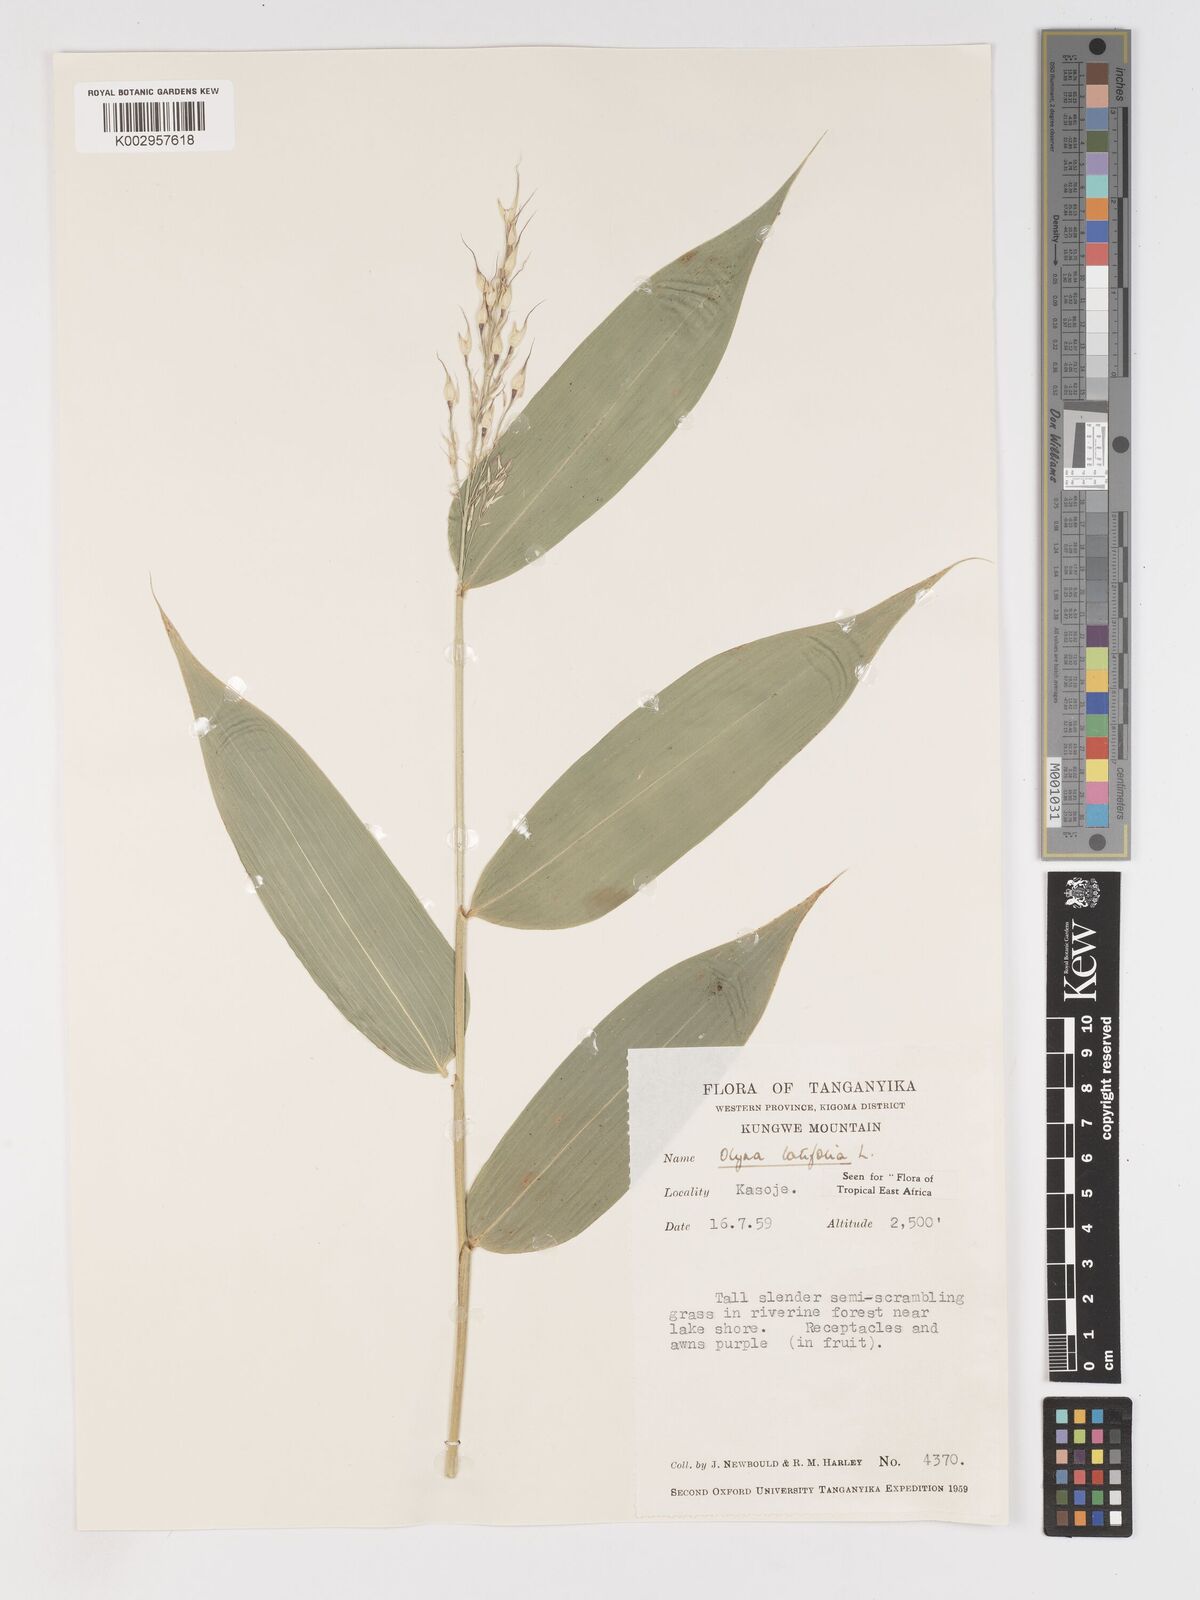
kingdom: Plantae
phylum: Tracheophyta
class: Liliopsida
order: Poales
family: Poaceae
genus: Olyra
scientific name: Olyra latifolia
